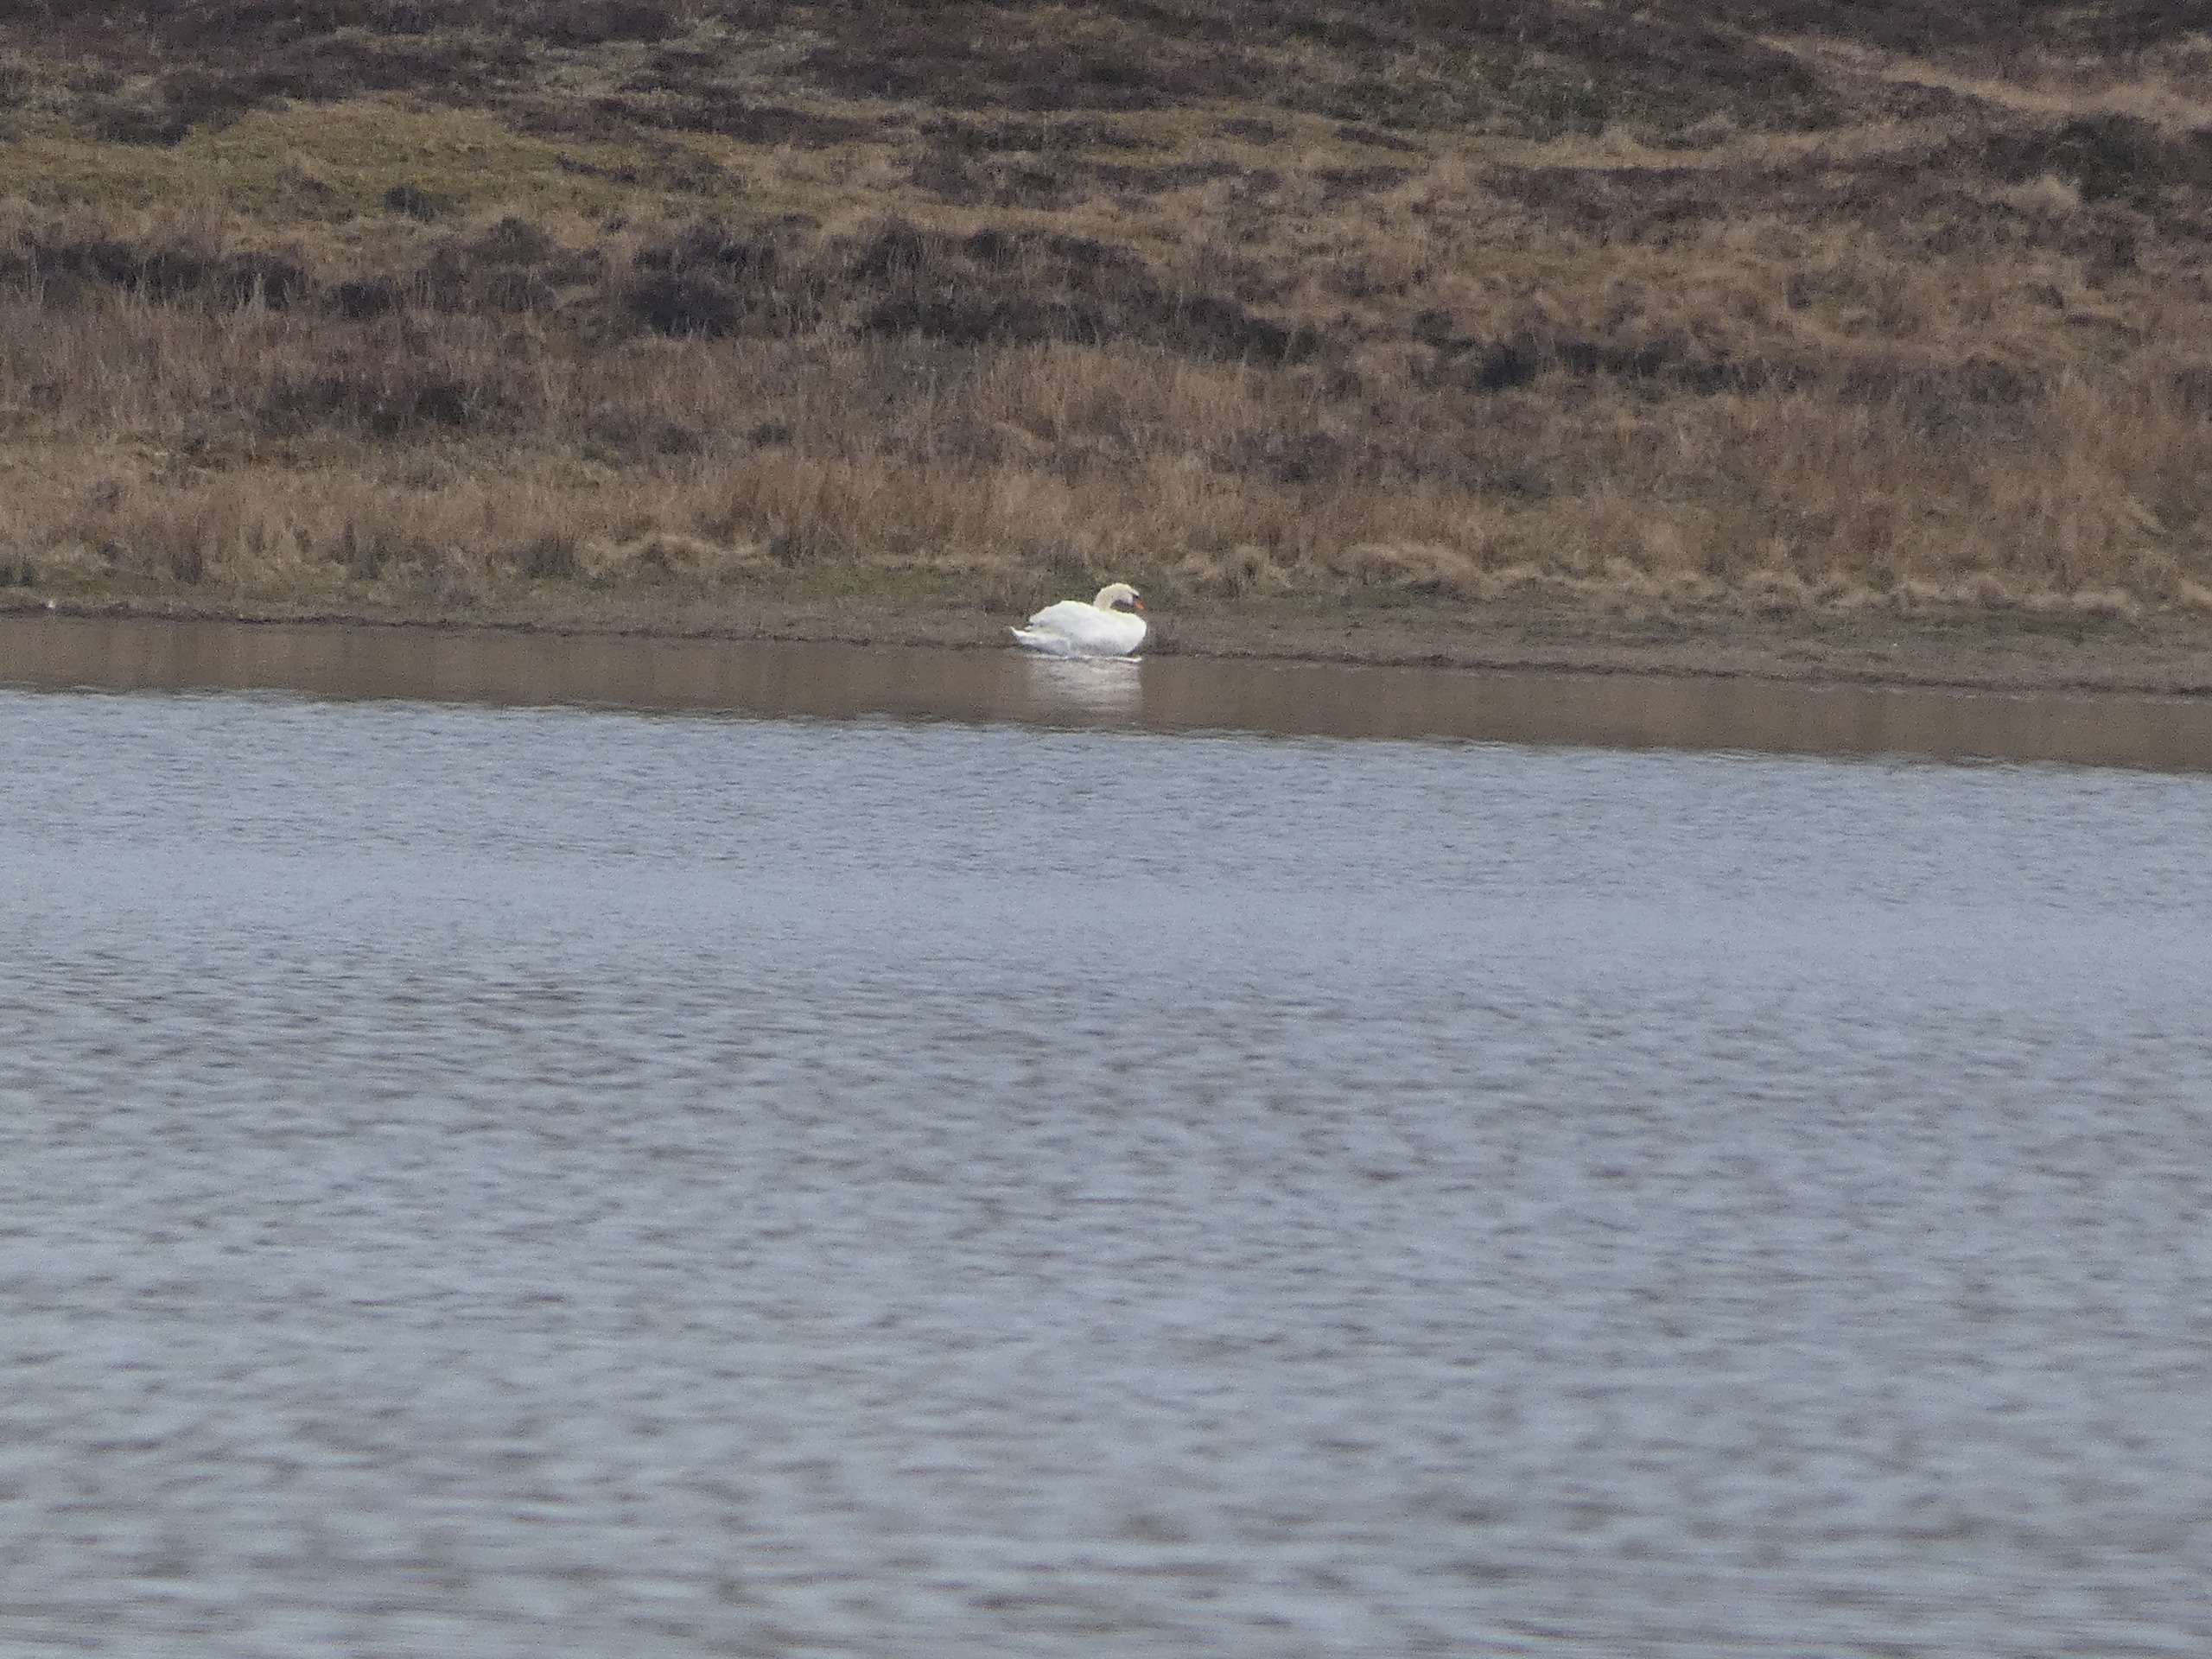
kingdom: Animalia
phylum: Chordata
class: Aves
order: Anseriformes
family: Anatidae
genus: Cygnus
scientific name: Cygnus olor
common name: Knopsvane
